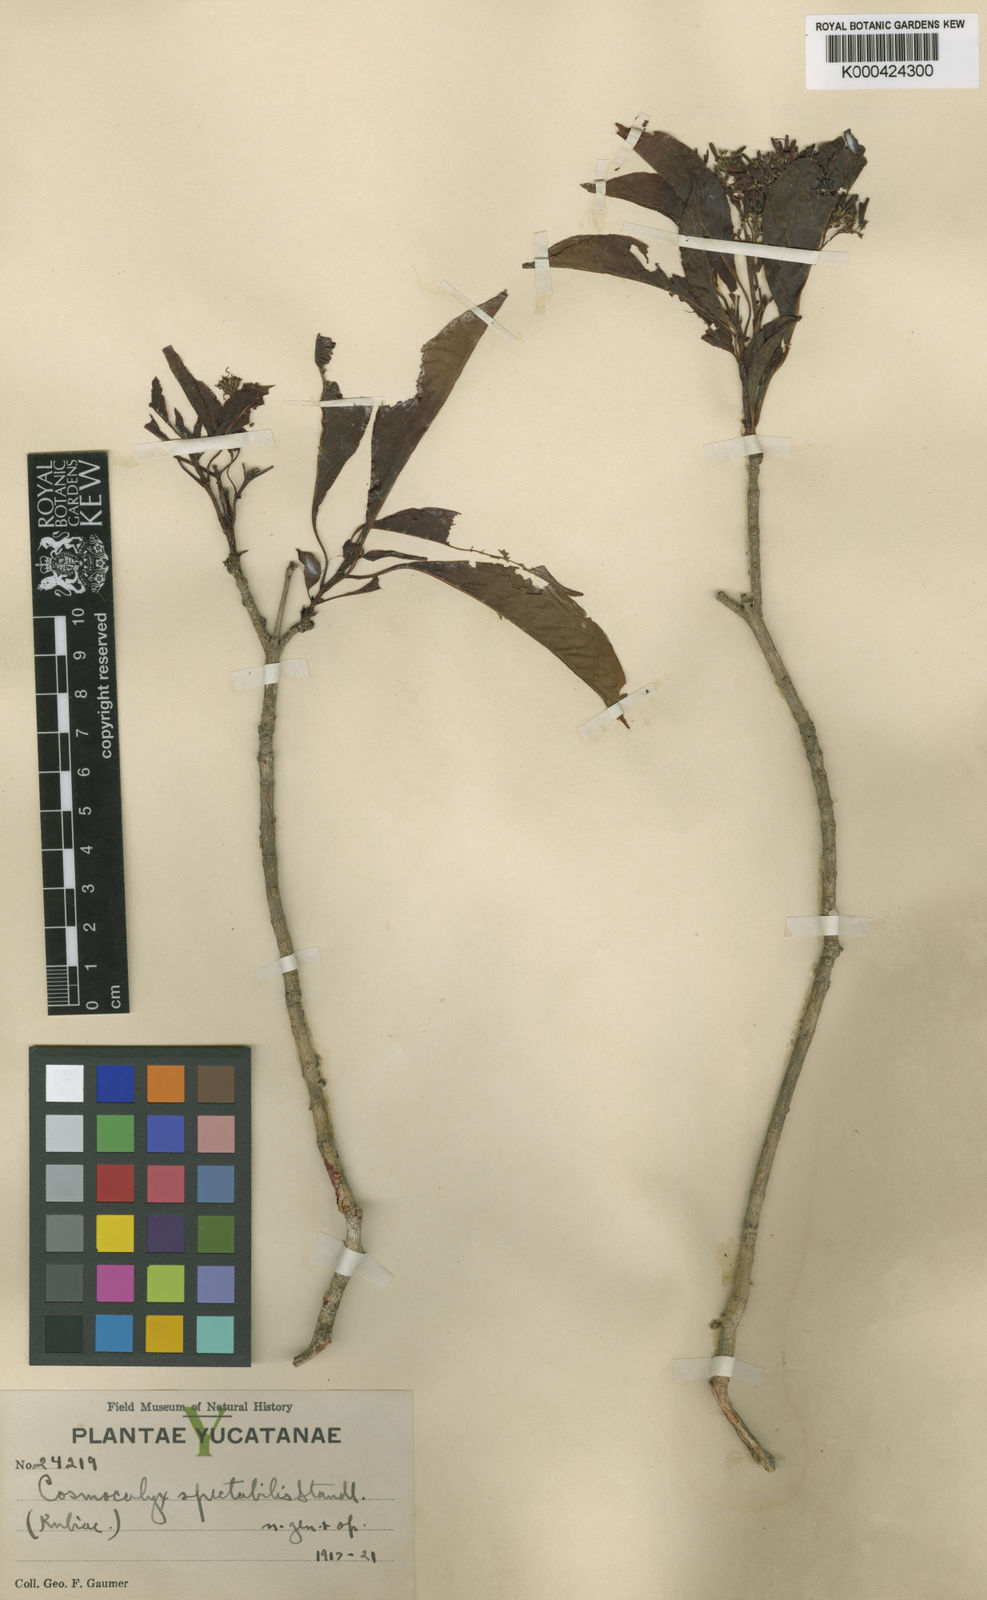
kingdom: Plantae
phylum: Tracheophyta
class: Magnoliopsida
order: Gentianales
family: Rubiaceae
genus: Cosmocalyx
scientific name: Cosmocalyx spectabilis
